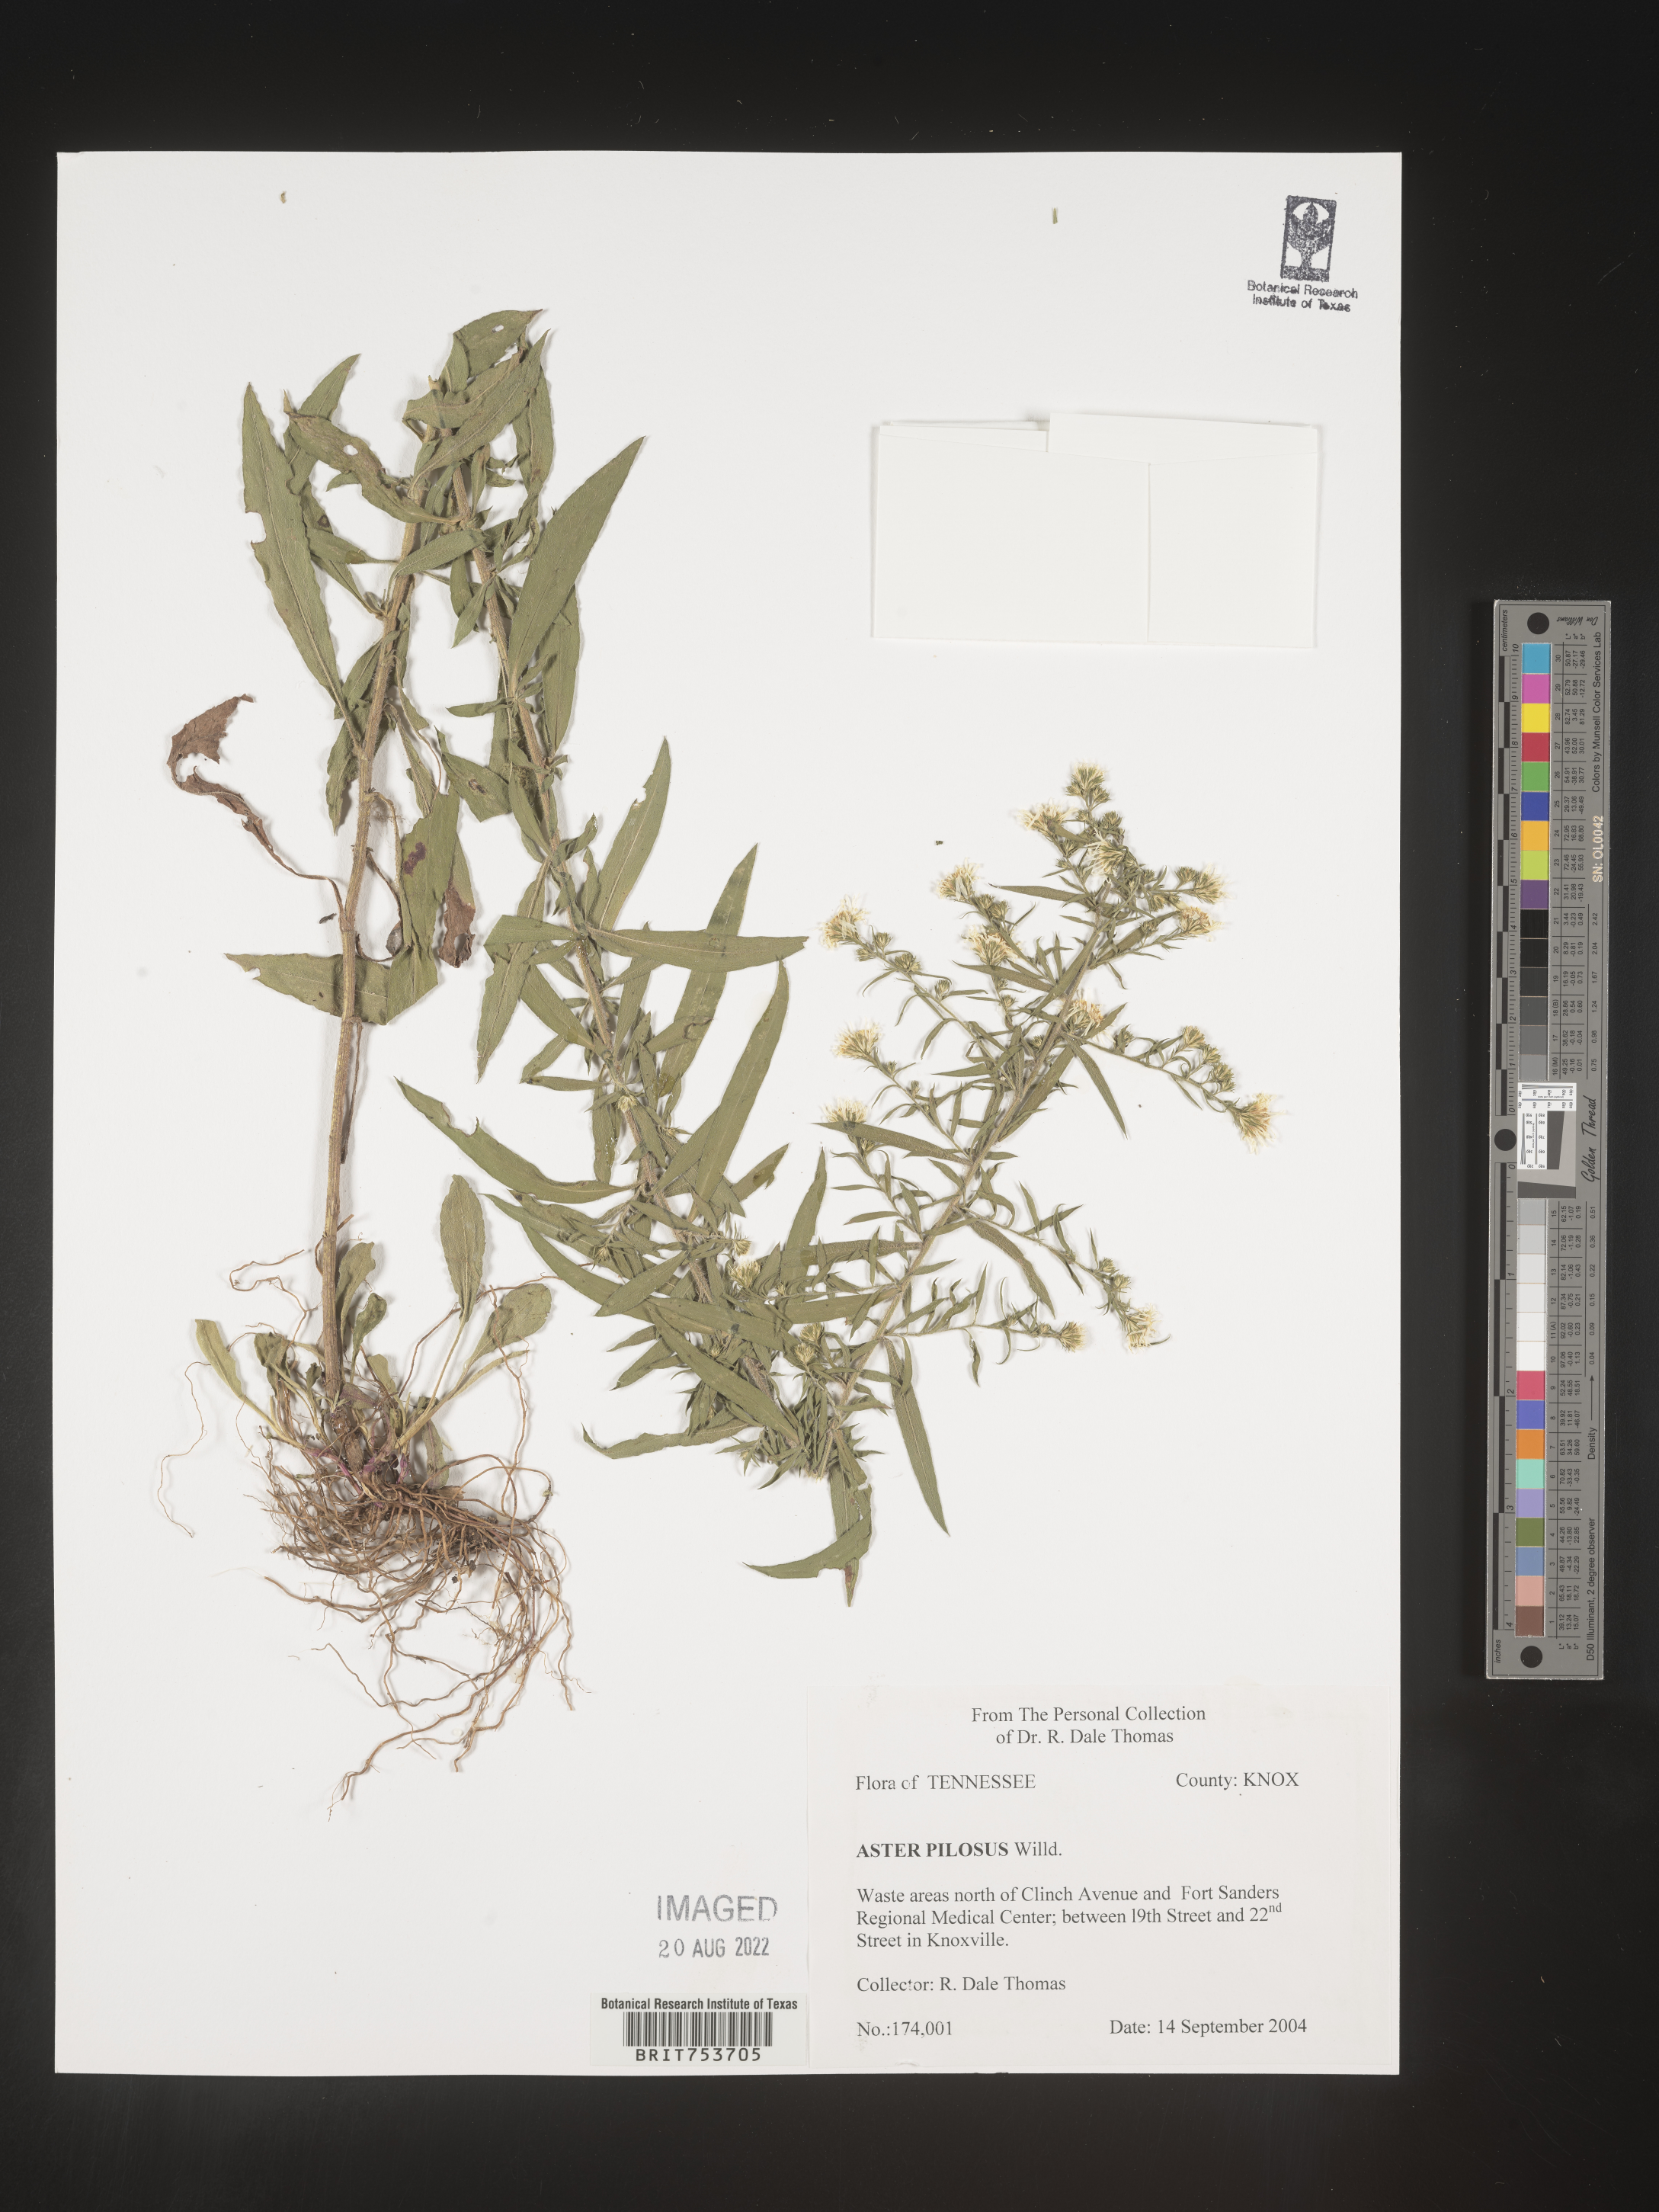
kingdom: Plantae
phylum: Tracheophyta
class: Magnoliopsida
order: Asterales
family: Asteraceae
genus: Symphyotrichum
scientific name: Symphyotrichum pilosum
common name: Awl aster
